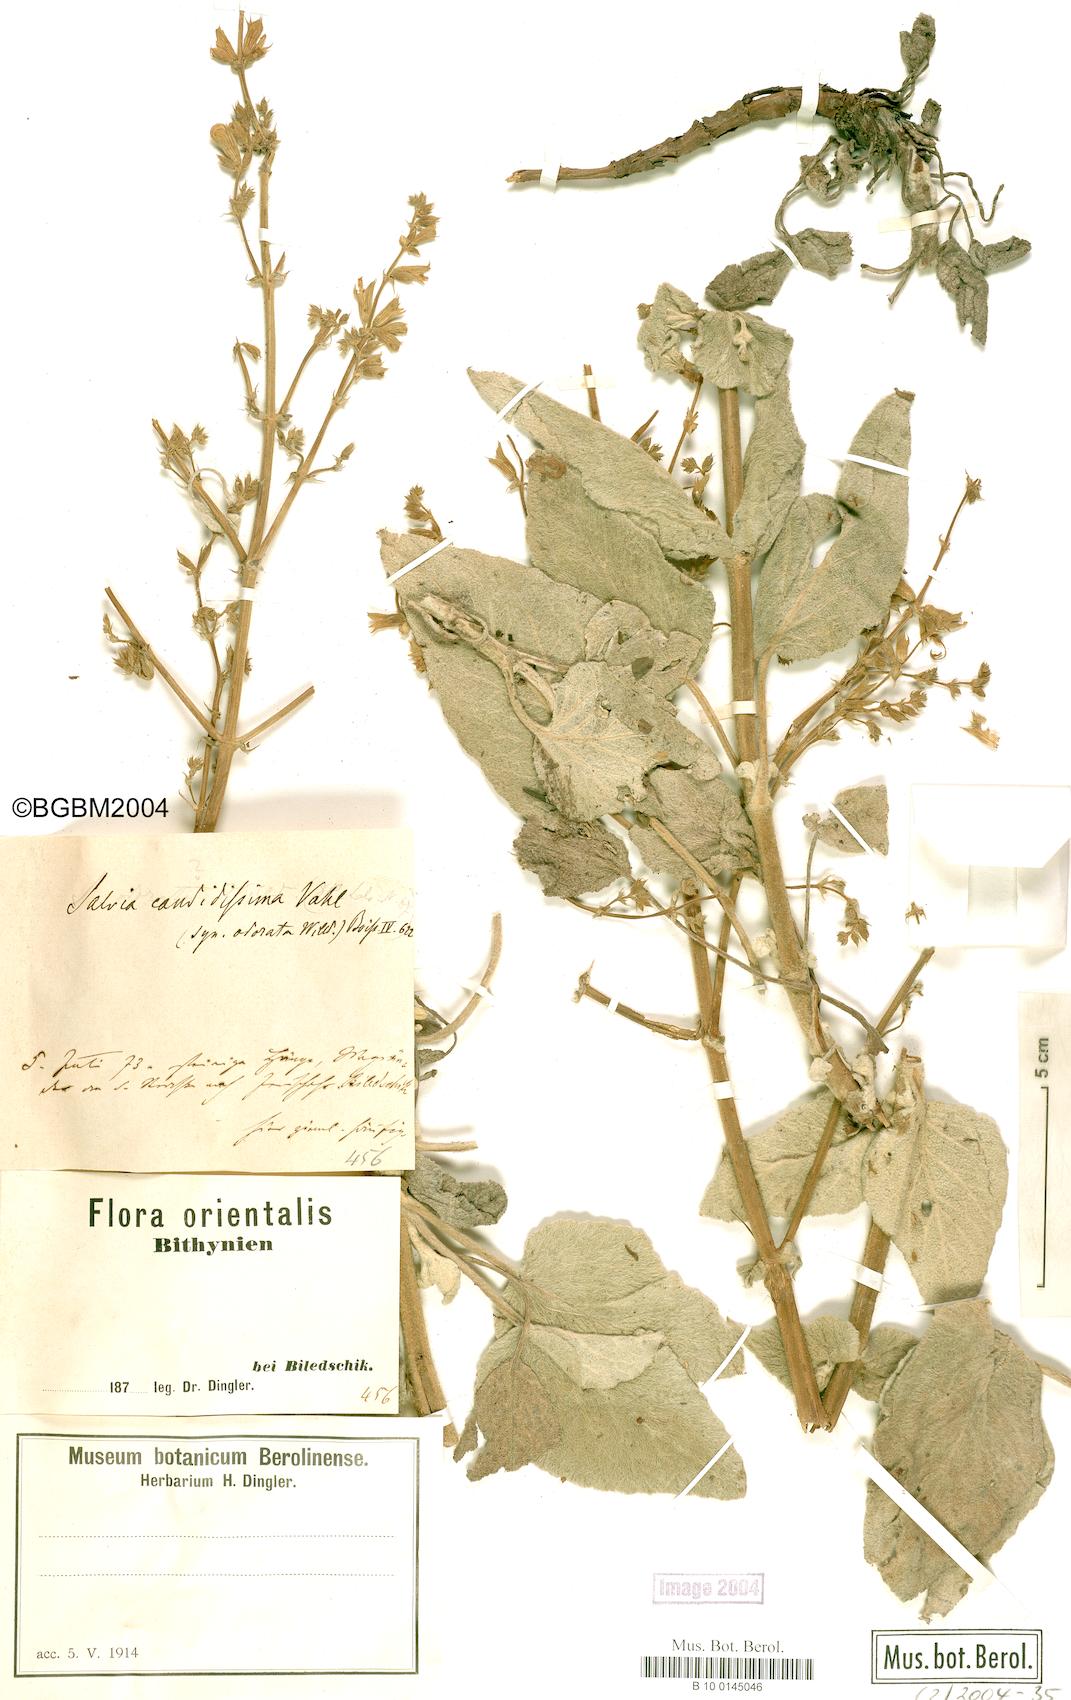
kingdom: Plantae
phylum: Tracheophyta
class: Magnoliopsida
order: Lamiales
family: Lamiaceae
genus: Salvia
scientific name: Salvia candidissima
